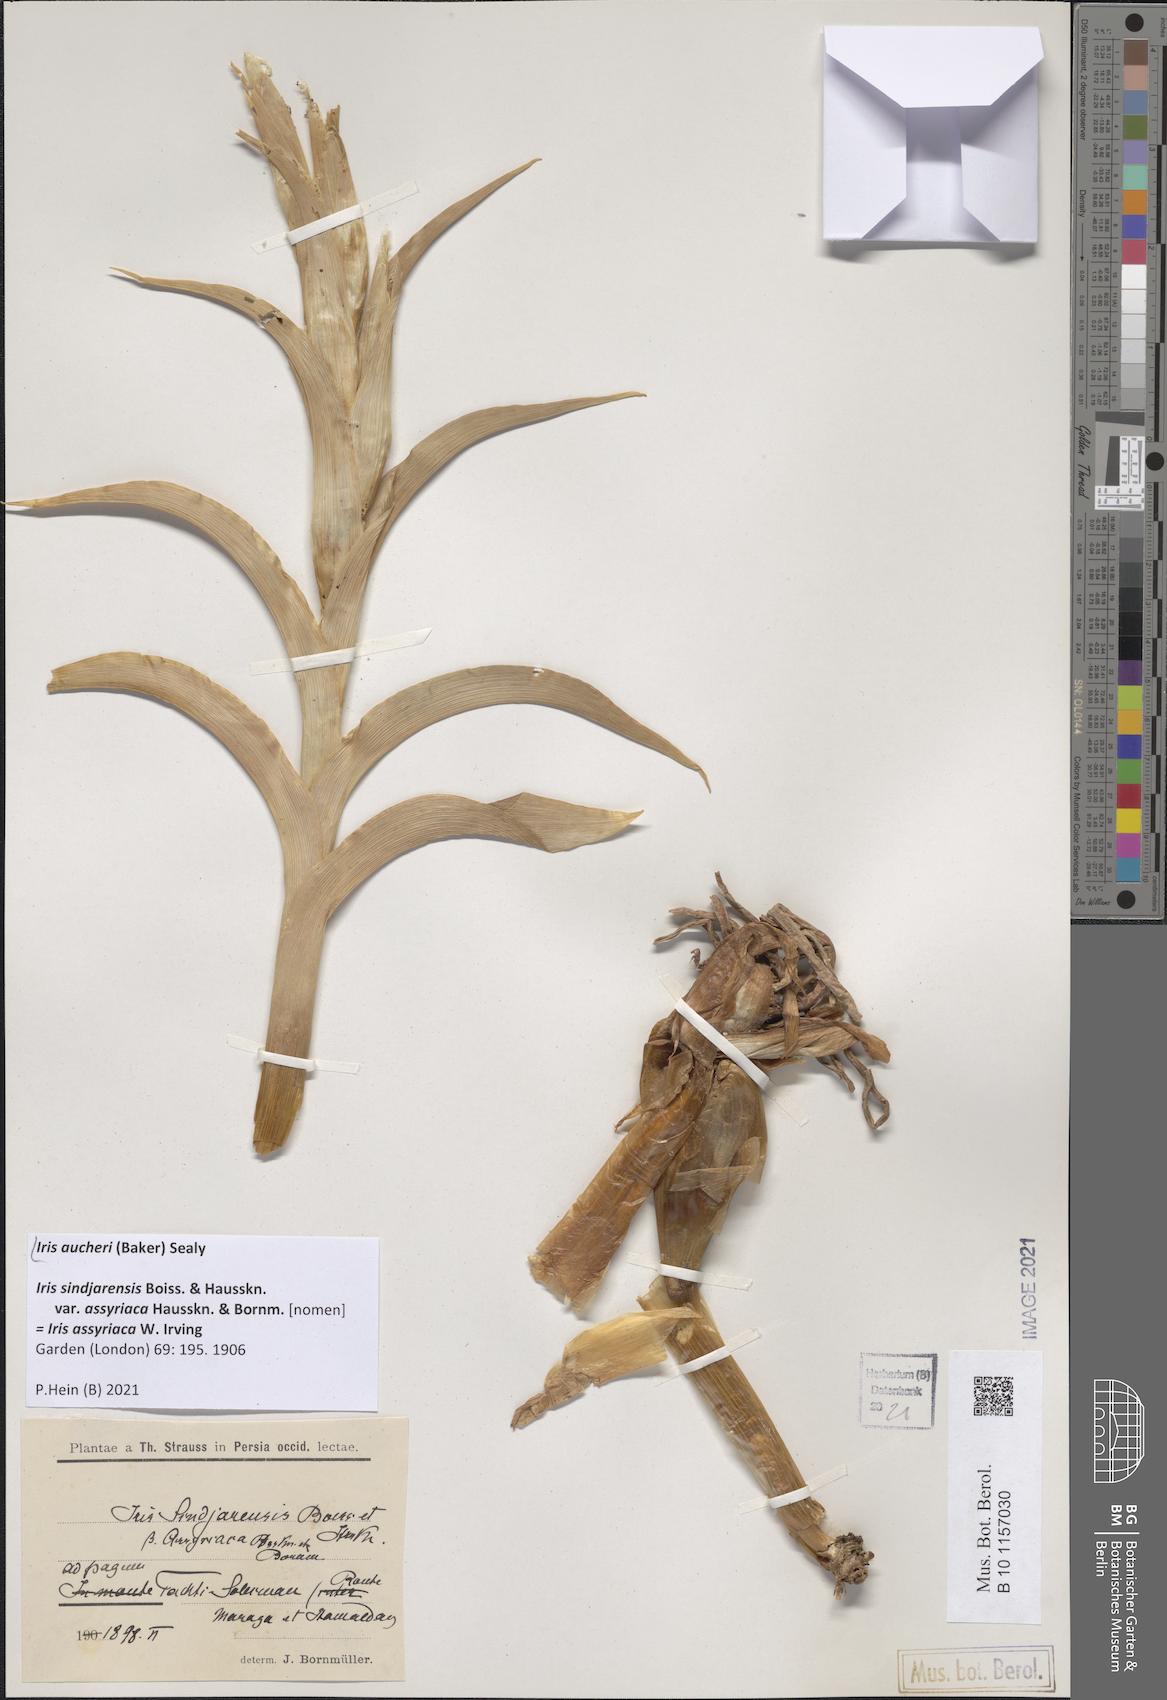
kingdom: Plantae
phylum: Tracheophyta
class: Liliopsida
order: Asparagales
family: Iridaceae
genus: Iris
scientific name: Iris aucheri
